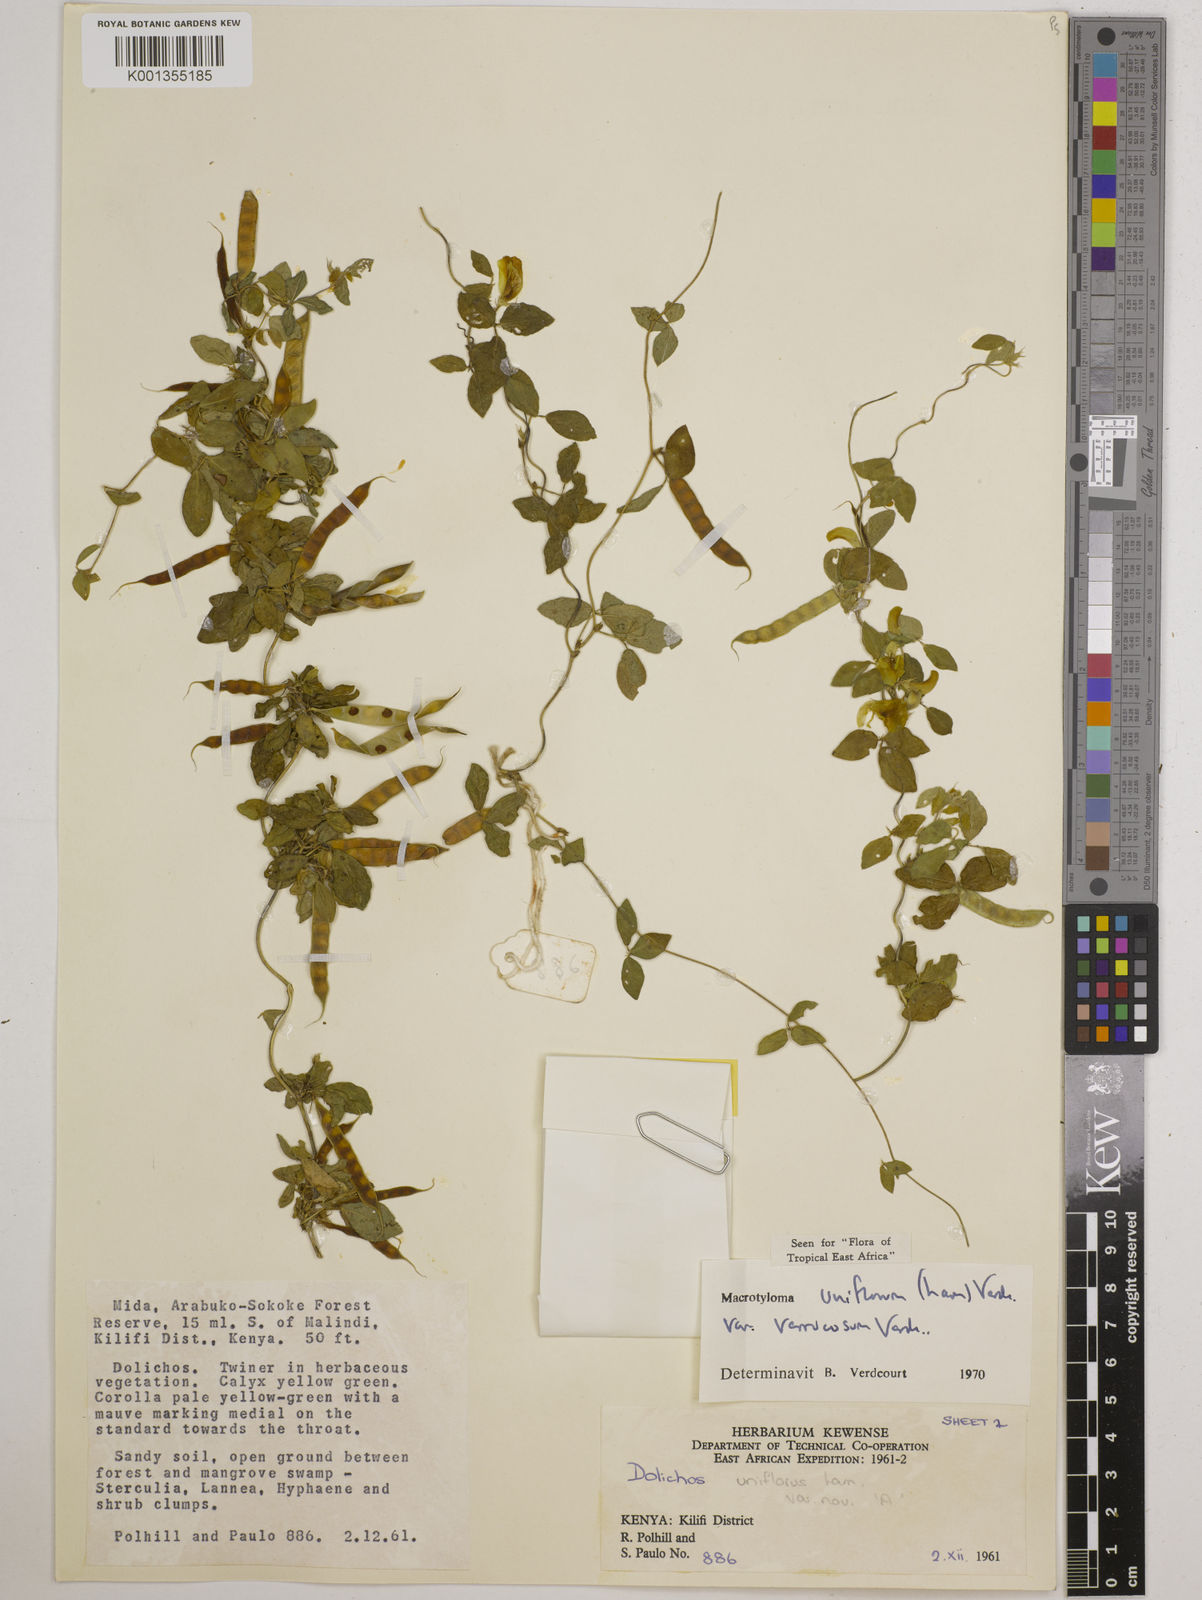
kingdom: Plantae
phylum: Tracheophyta
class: Magnoliopsida
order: Fabales
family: Fabaceae
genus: Macrotyloma
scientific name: Macrotyloma
